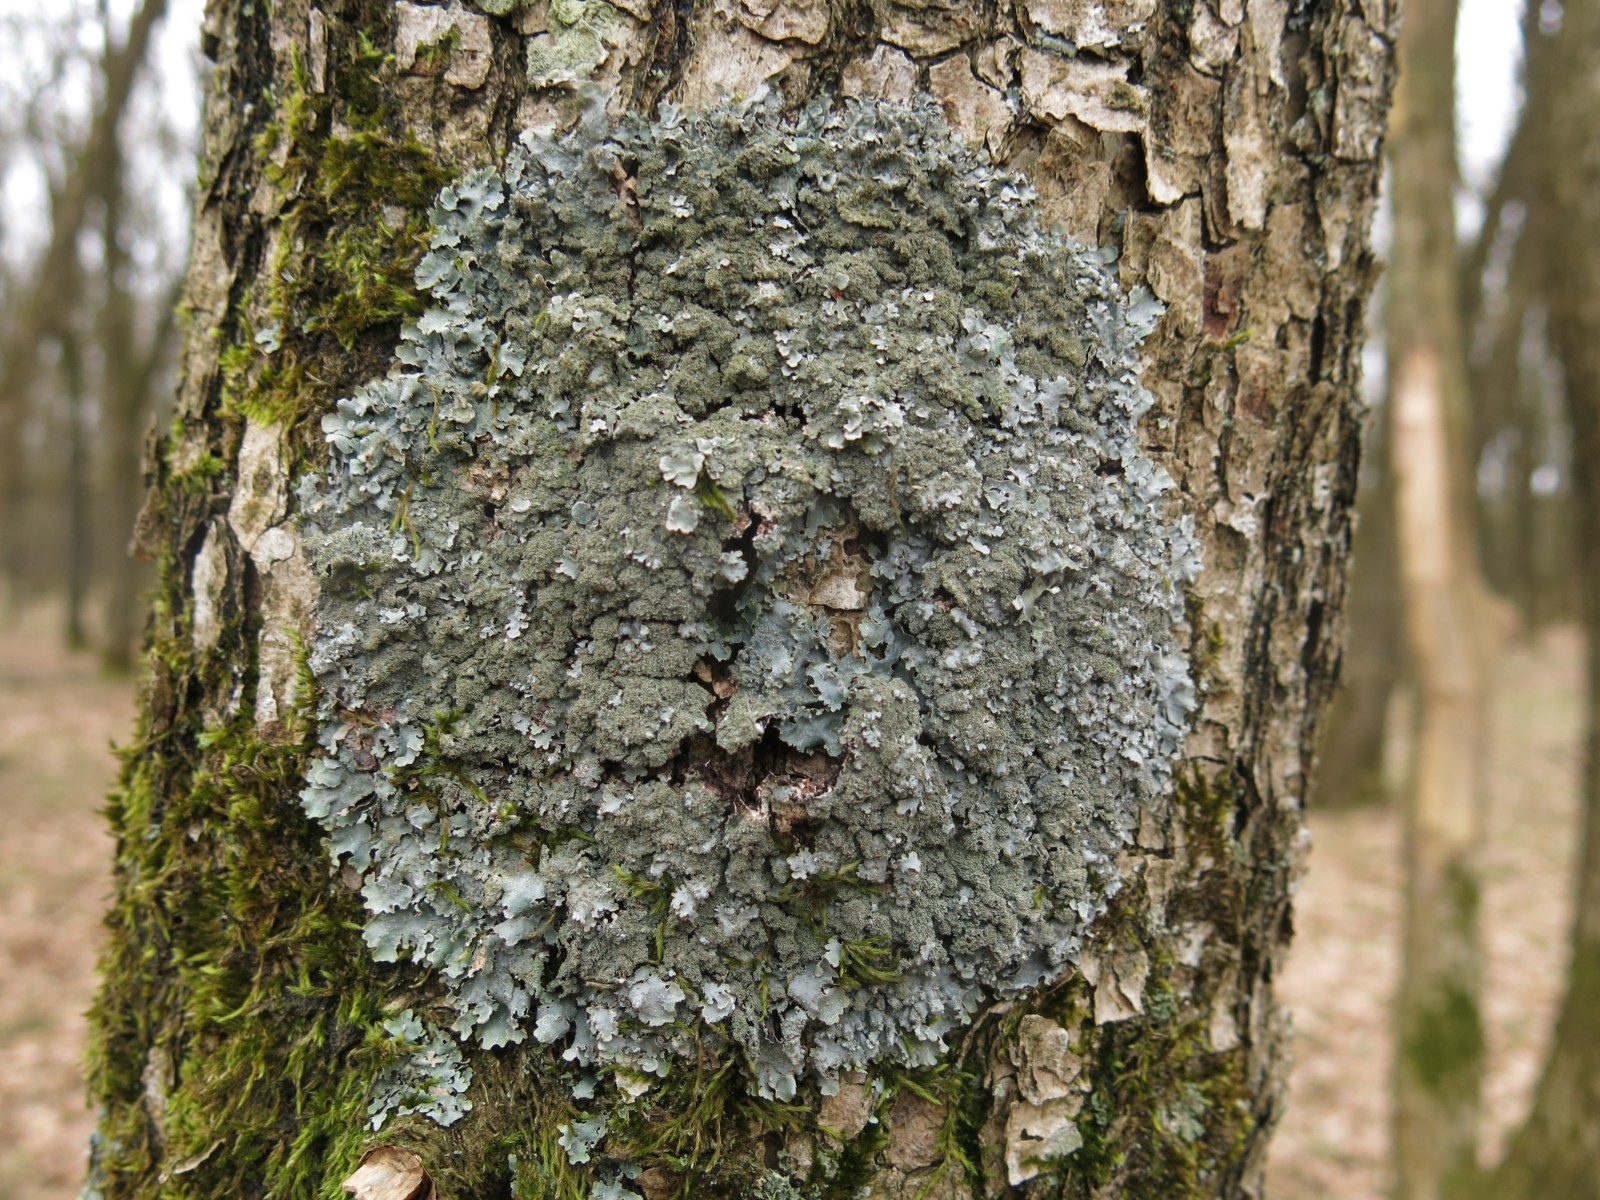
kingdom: Fungi
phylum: Ascomycota
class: Lecanoromycetes
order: Lecanorales
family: Parmeliaceae
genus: Parmelia
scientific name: Parmelia saxatilis
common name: farve-skållav
